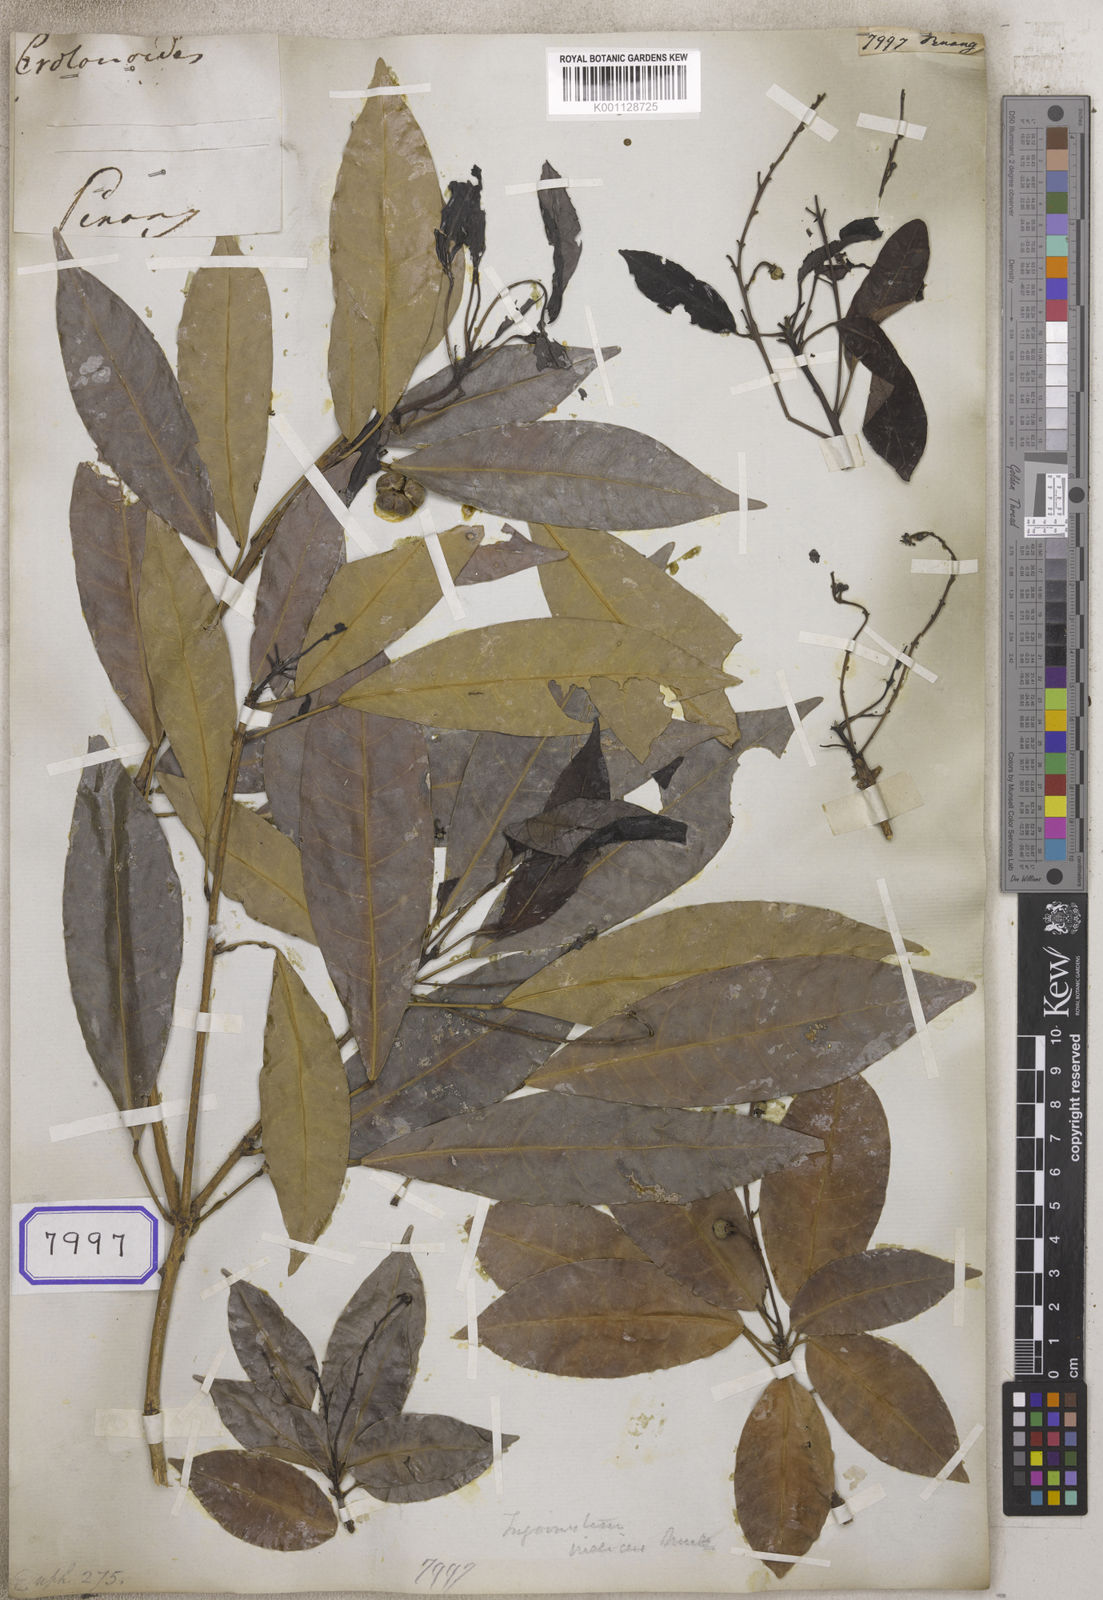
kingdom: Plantae
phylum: Tracheophyta
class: Magnoliopsida
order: Malpighiales
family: Euphorbiaceae
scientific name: Euphorbiaceae
